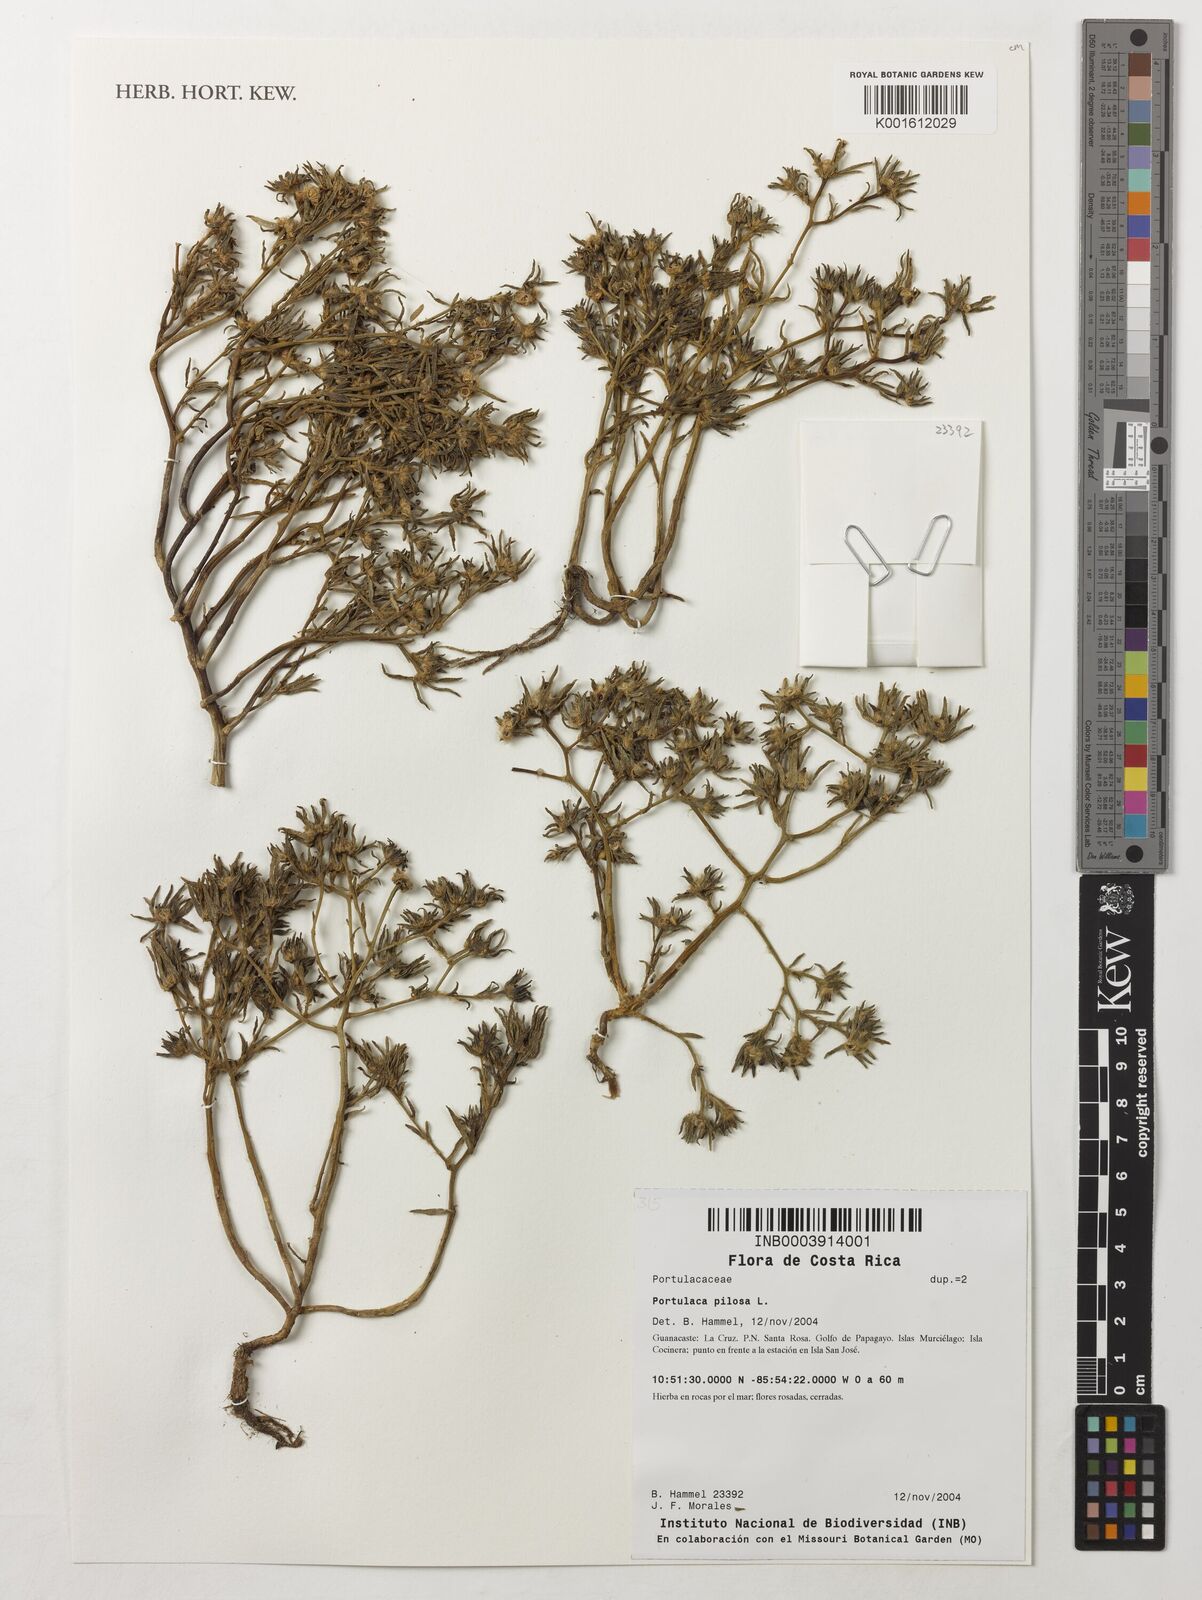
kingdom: Plantae
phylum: Tracheophyta
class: Magnoliopsida
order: Caryophyllales
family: Portulacaceae
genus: Portulaca
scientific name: Portulaca pilosa
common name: Kiss me quick
